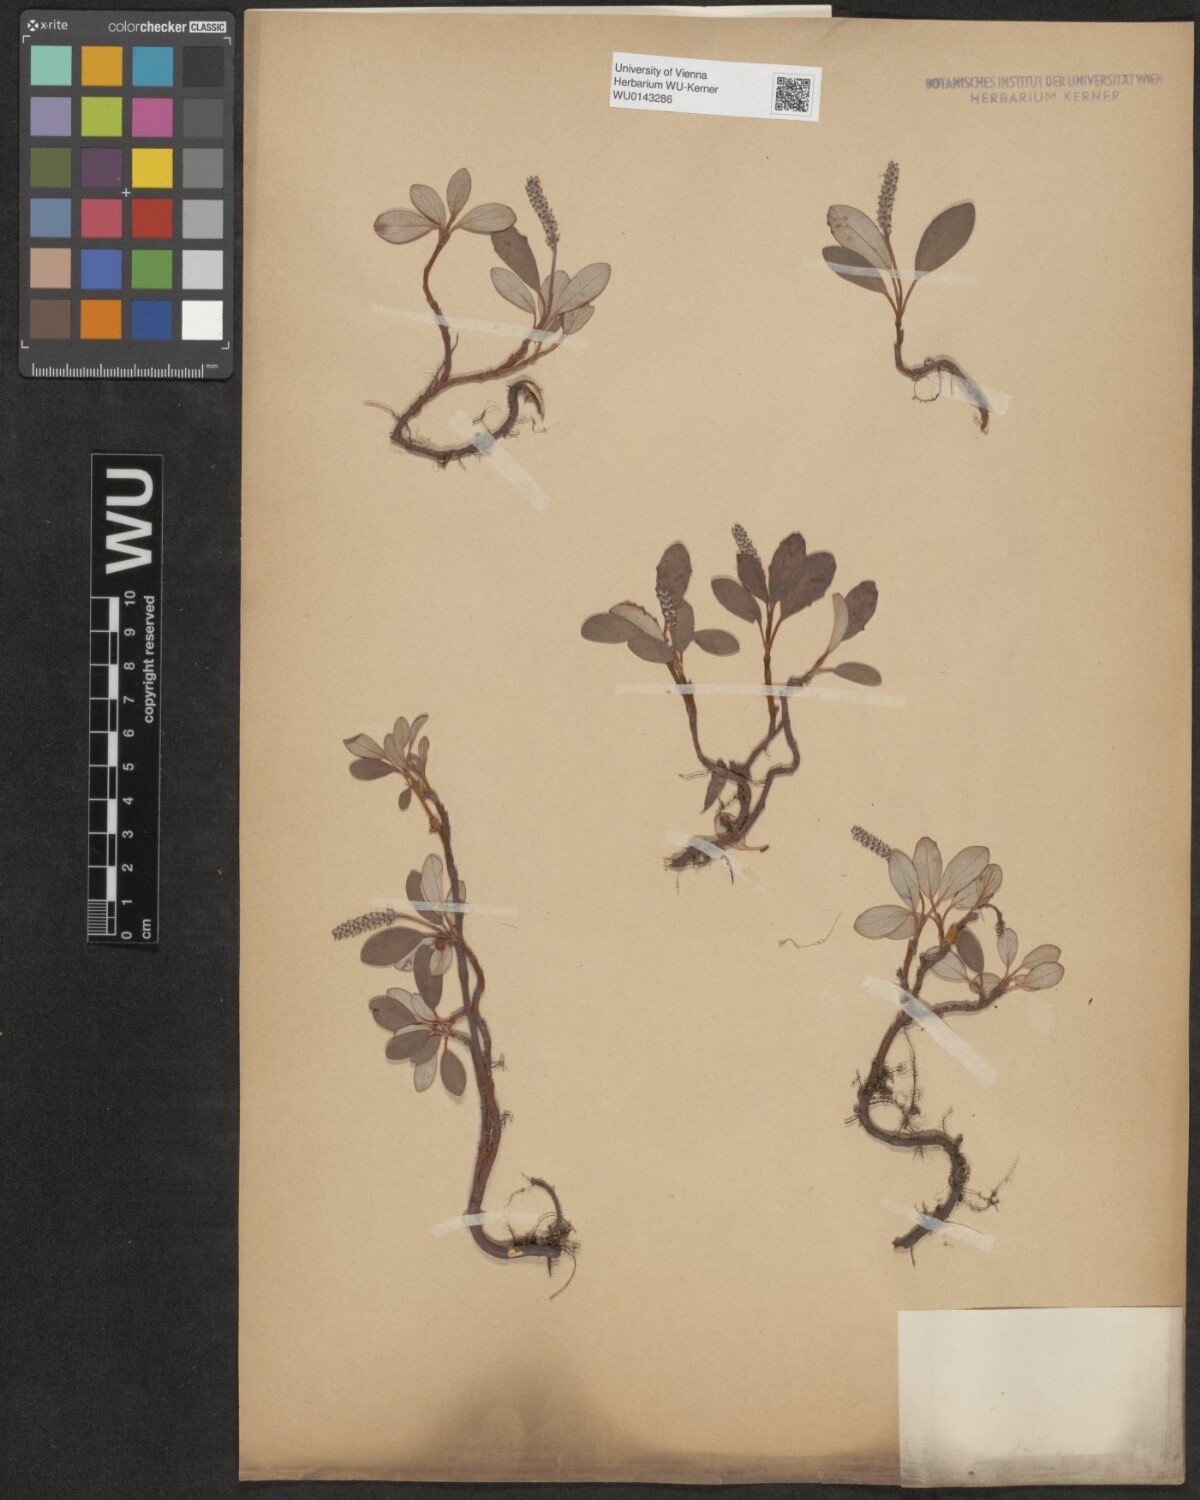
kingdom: Plantae
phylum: Tracheophyta
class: Magnoliopsida
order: Malpighiales
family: Salicaceae
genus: Salix
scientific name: Salix reticulata
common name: Net-leaved willow
